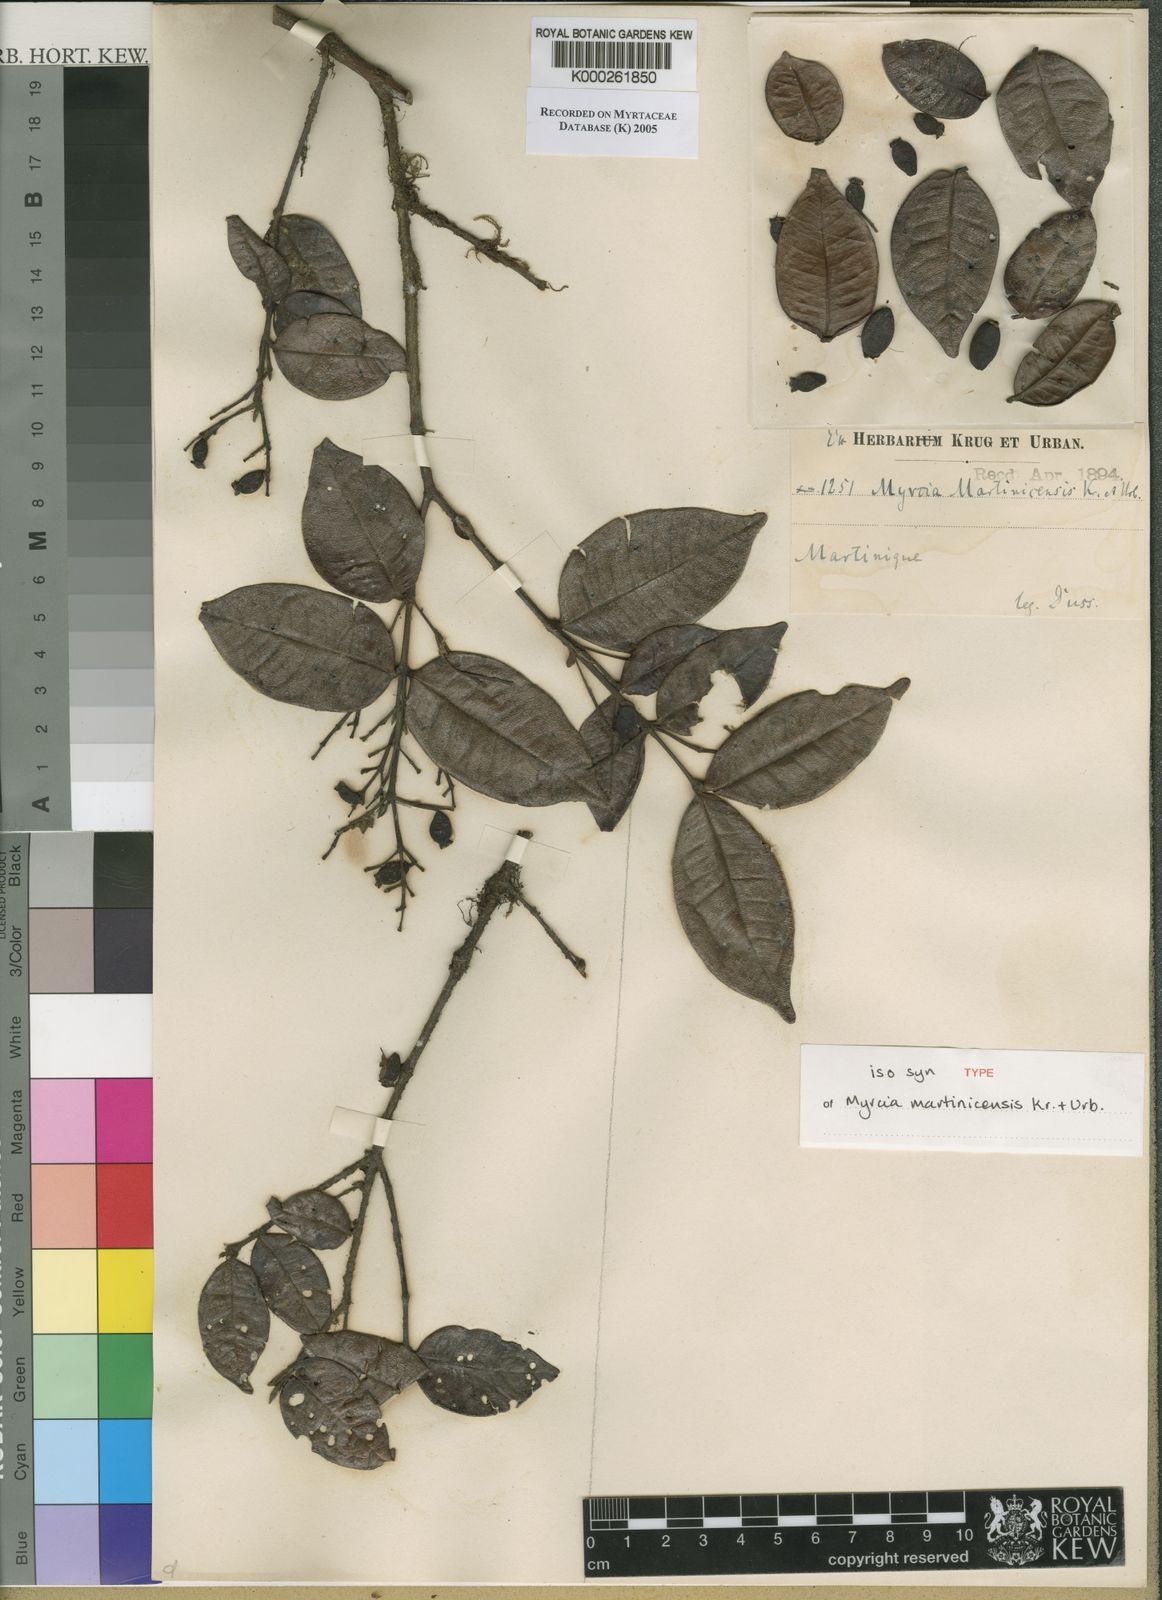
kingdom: Plantae
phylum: Tracheophyta
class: Magnoliopsida
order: Myrtales
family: Myrtaceae
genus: Myrcia
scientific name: Myrcia splendens
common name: Surinam cherry
